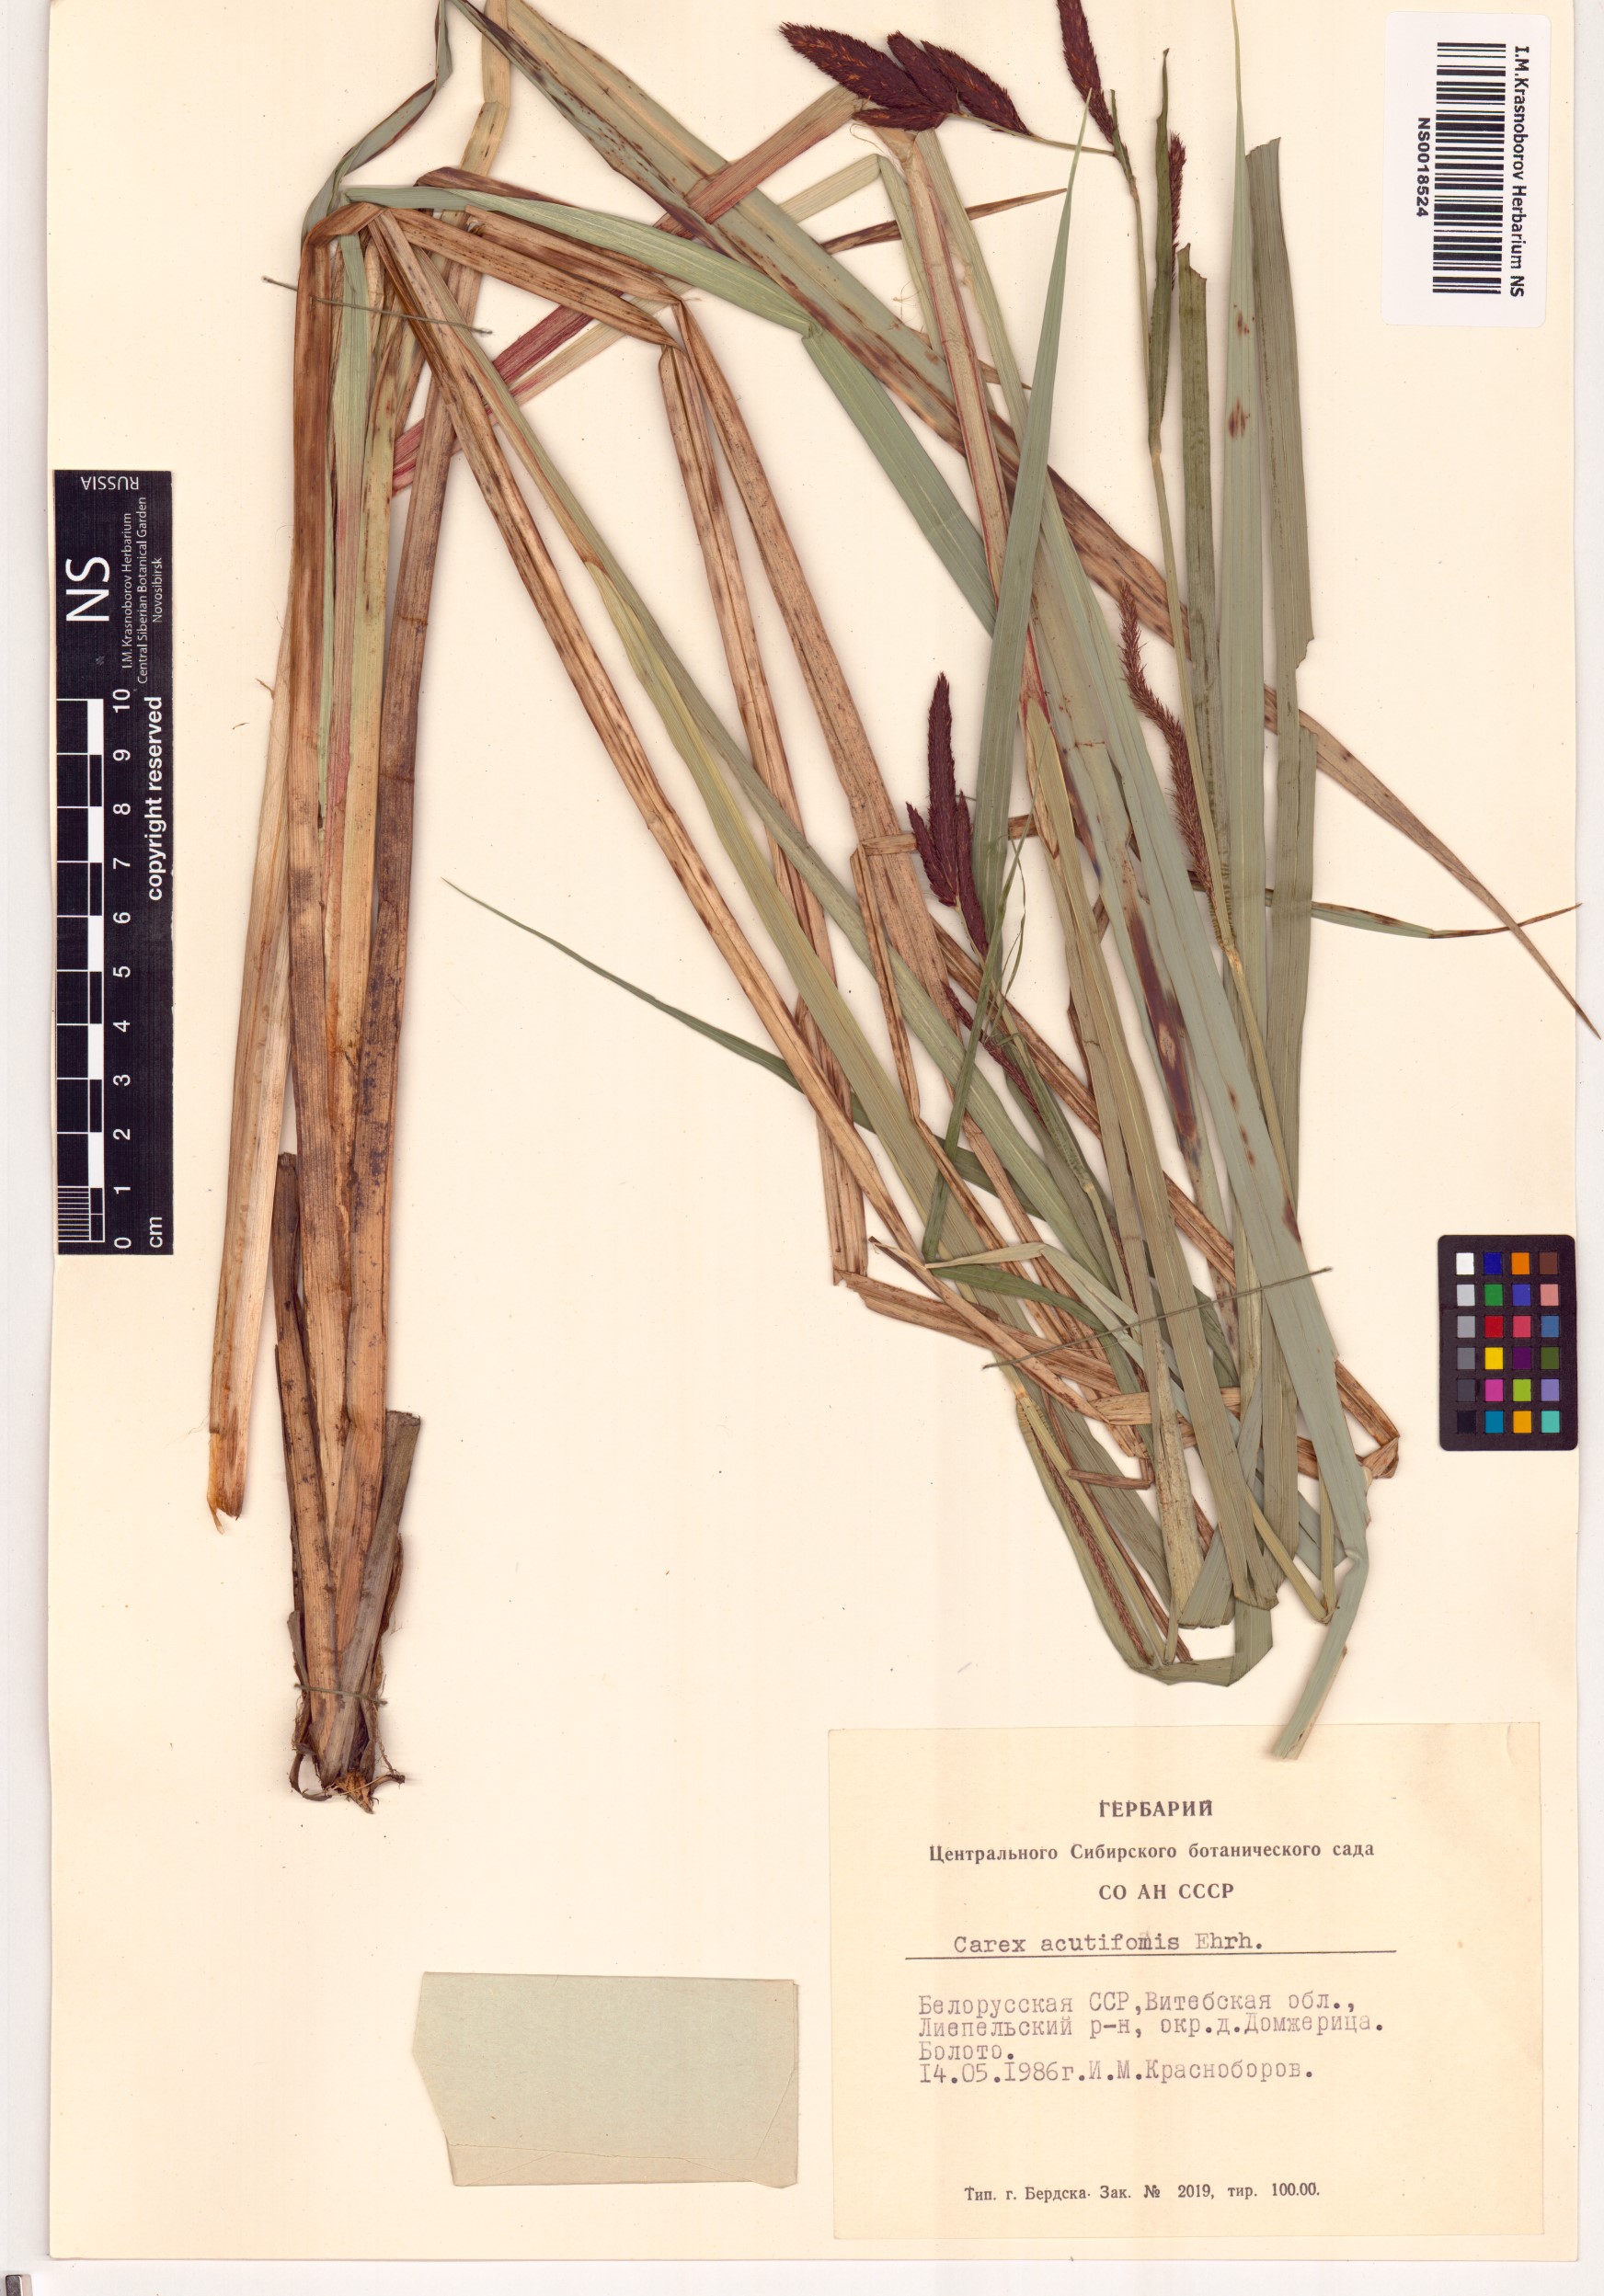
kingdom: Plantae
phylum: Tracheophyta
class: Liliopsida
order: Poales
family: Cyperaceae
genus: Carex
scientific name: Carex acutiformis
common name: Lesser pond-sedge
